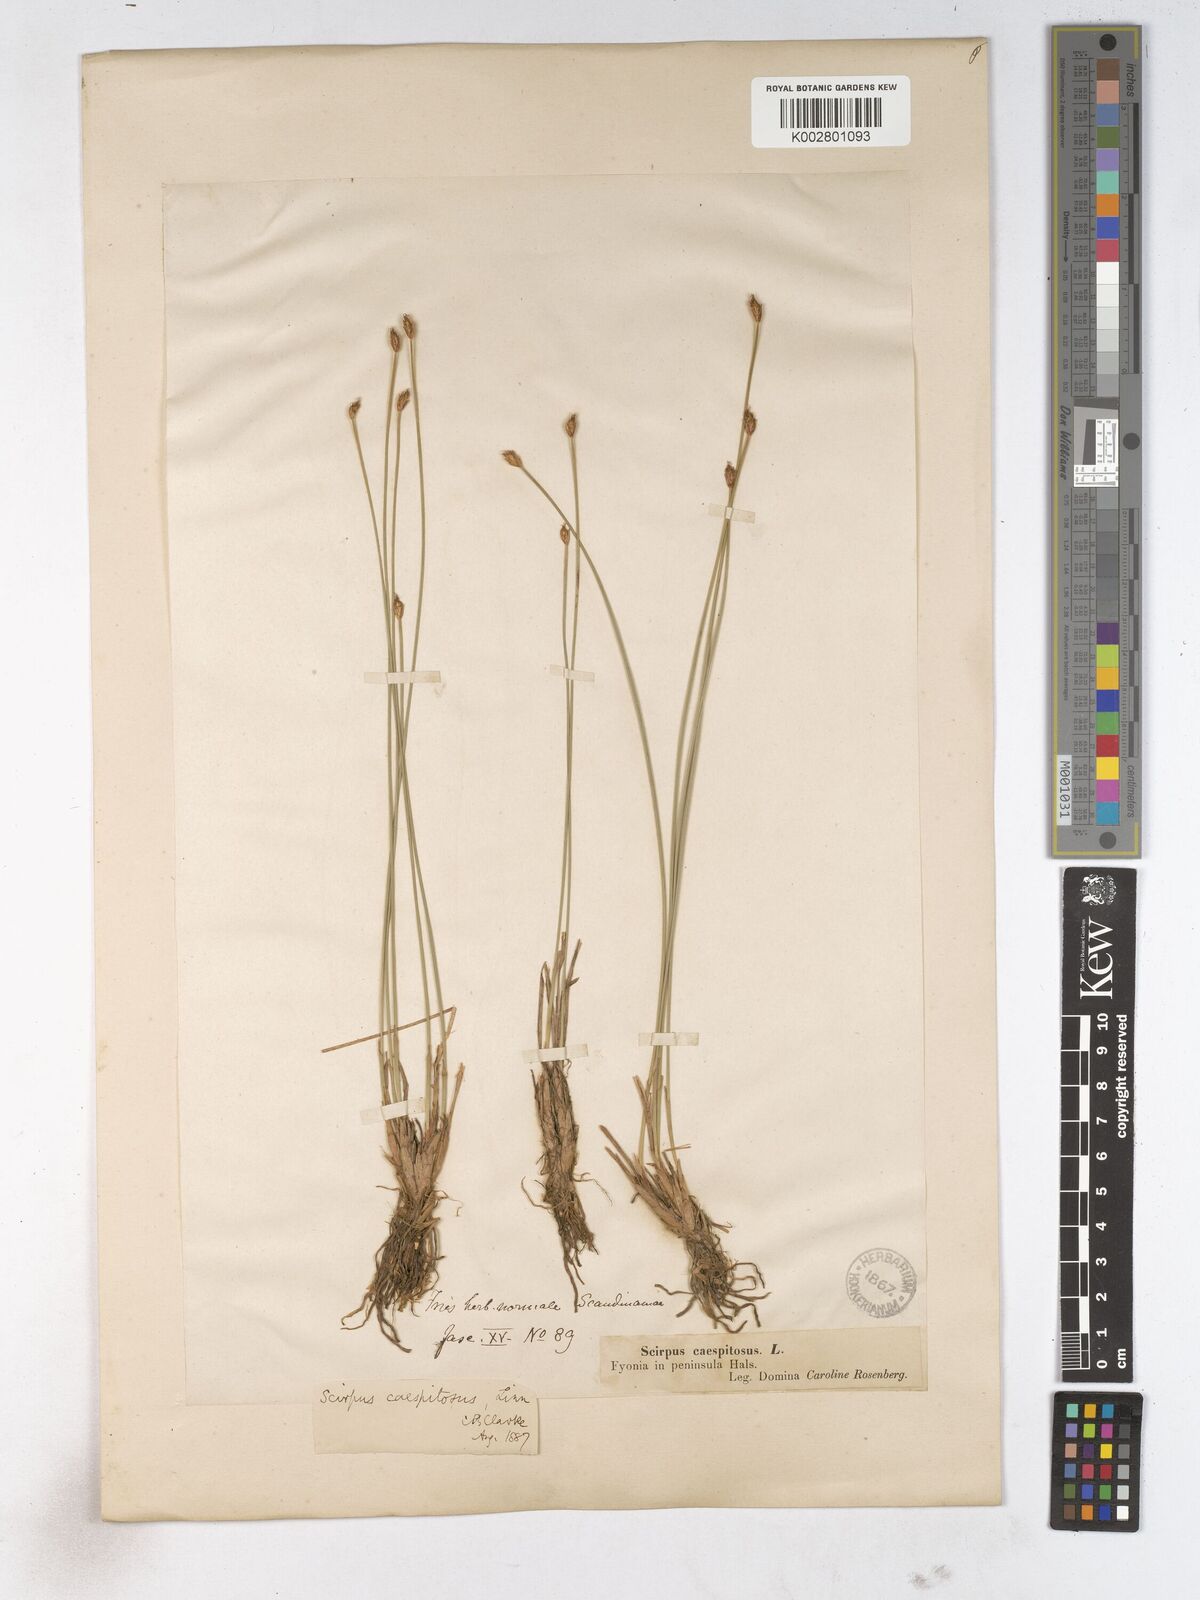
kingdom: Plantae
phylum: Tracheophyta
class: Liliopsida
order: Poales
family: Cyperaceae
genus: Trichophorum
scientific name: Trichophorum cespitosum
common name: Cespitose bulrush
